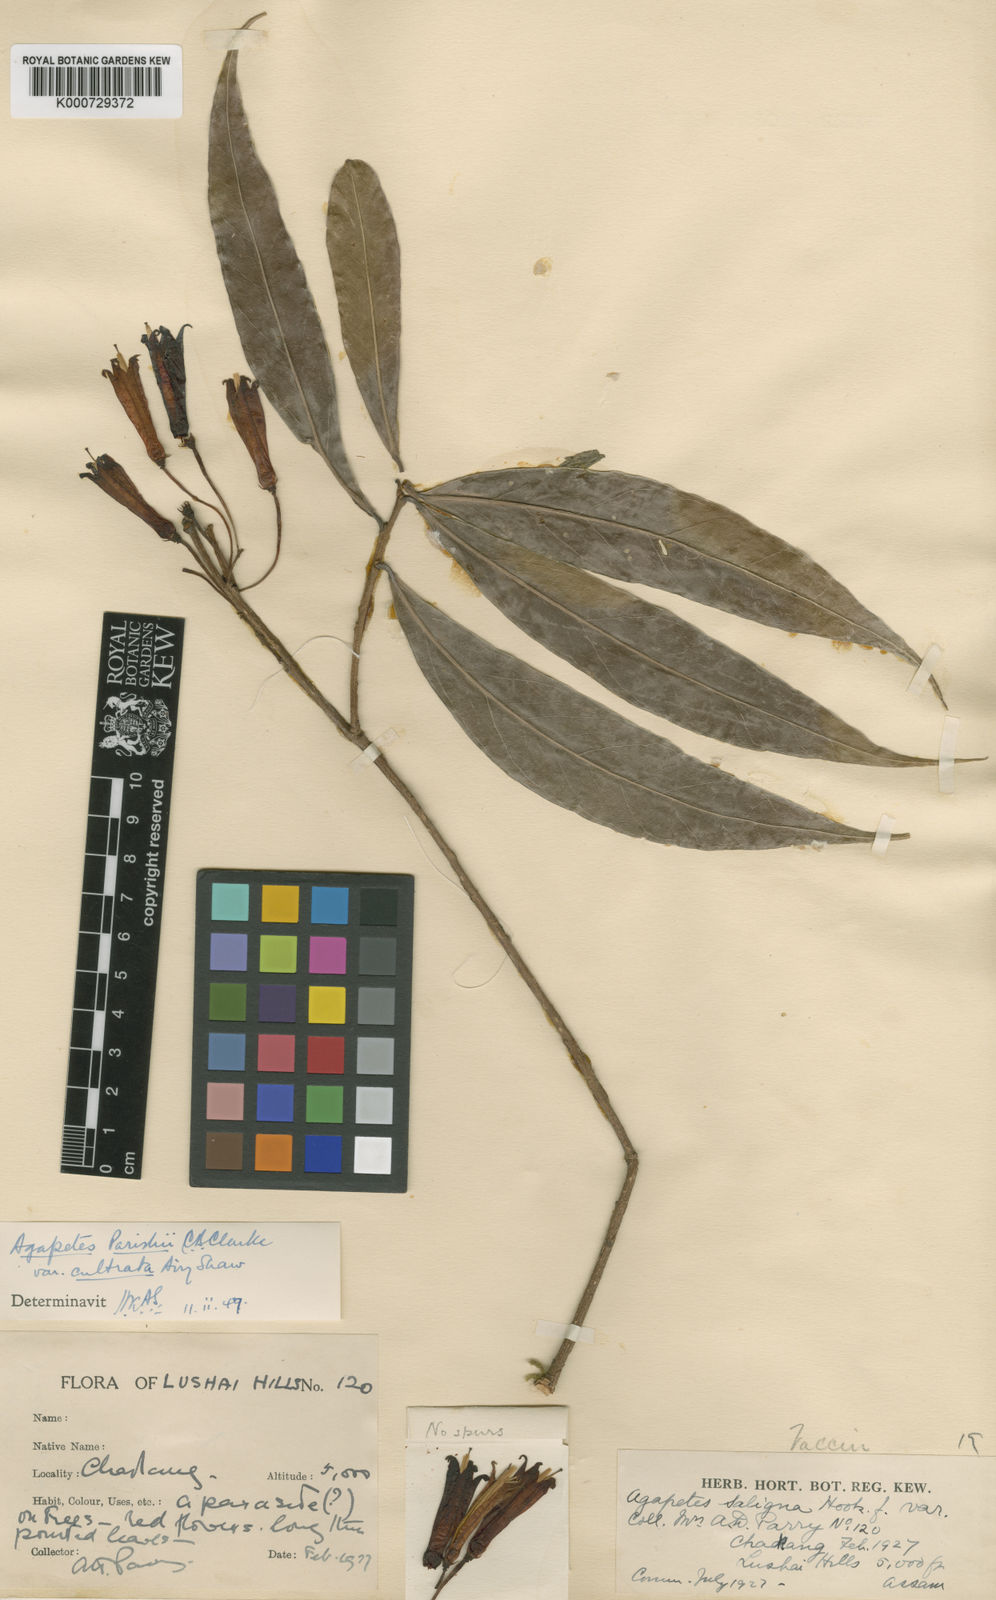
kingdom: Plantae
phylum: Tracheophyta
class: Magnoliopsida
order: Ericales
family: Ericaceae
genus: Agapetes
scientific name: Agapetes parishii
